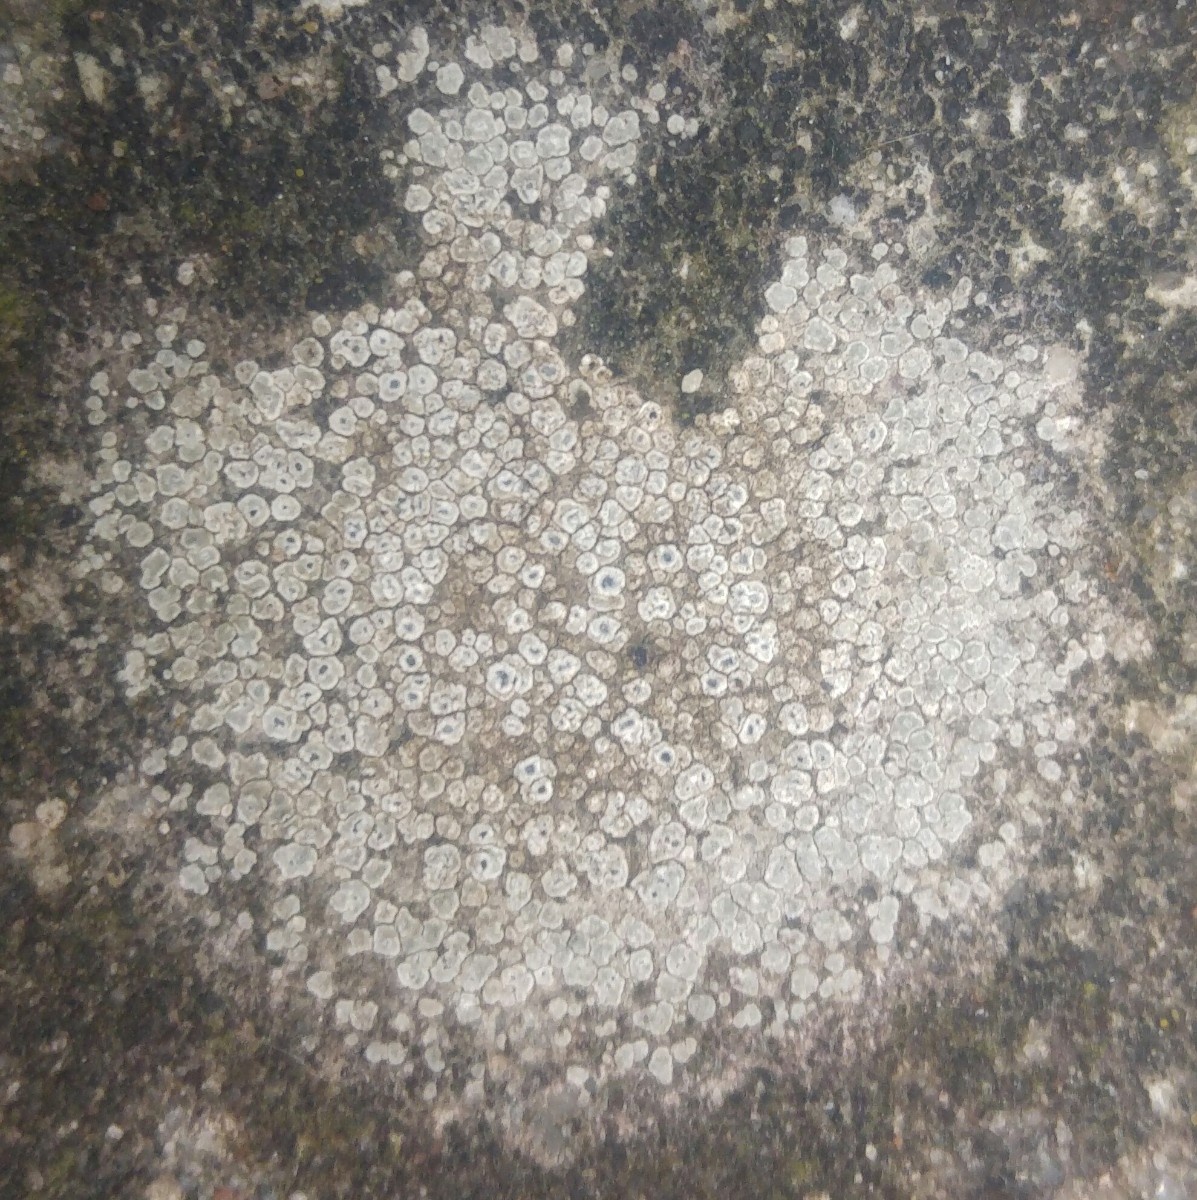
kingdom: Fungi
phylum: Ascomycota
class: Lecanoromycetes
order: Pertusariales
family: Megasporaceae
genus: Circinaria
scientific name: Circinaria contorta
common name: indviklet hulskivelav
